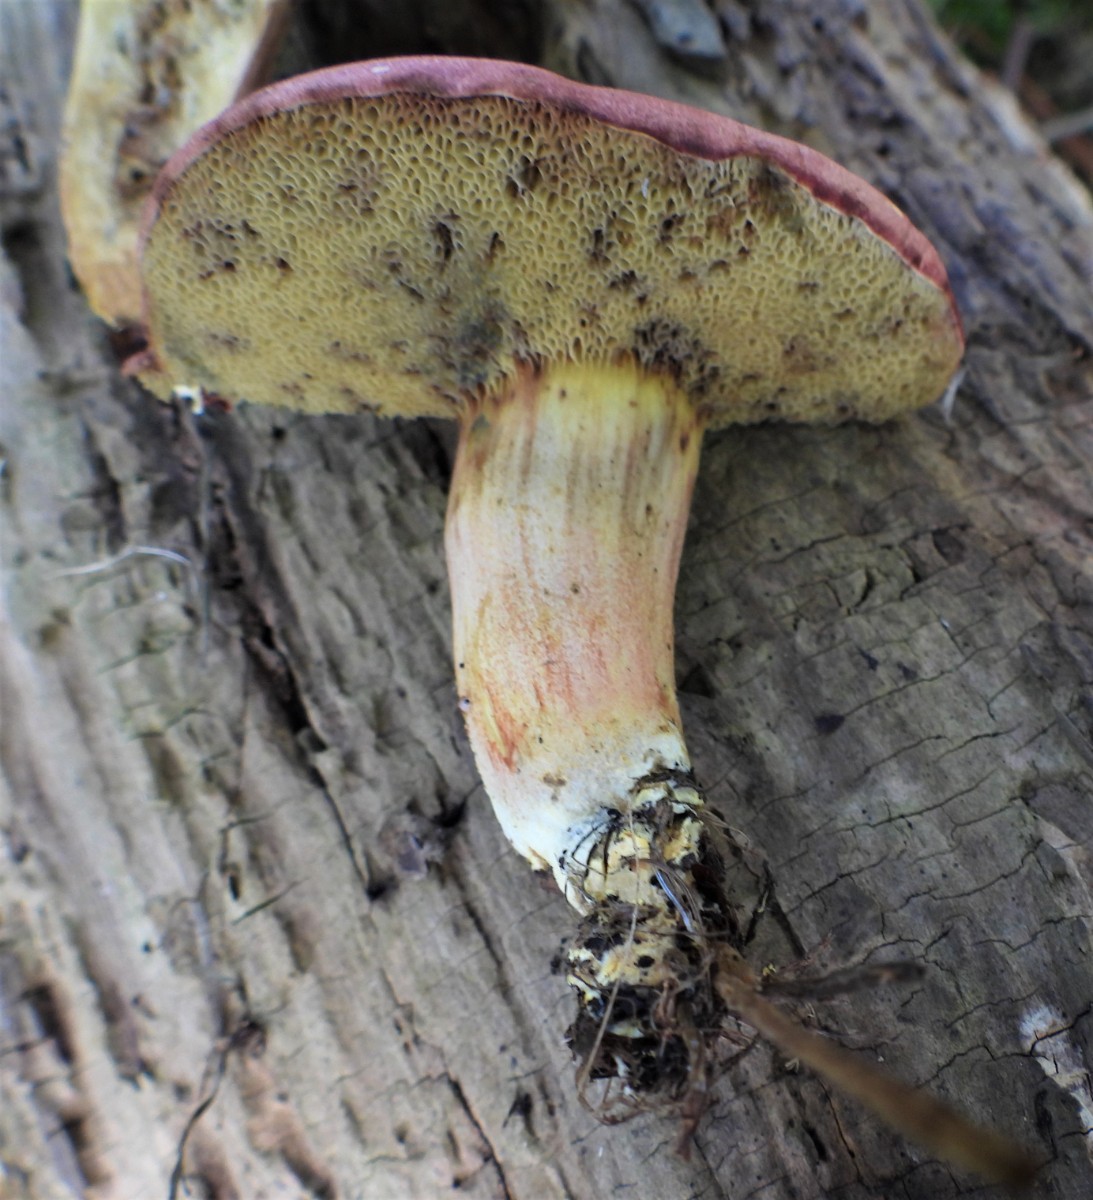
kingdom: Fungi
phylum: Basidiomycota
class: Agaricomycetes
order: Boletales
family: Boletaceae
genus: Hortiboletus
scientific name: Hortiboletus rubellus
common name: blodrød rørhat
